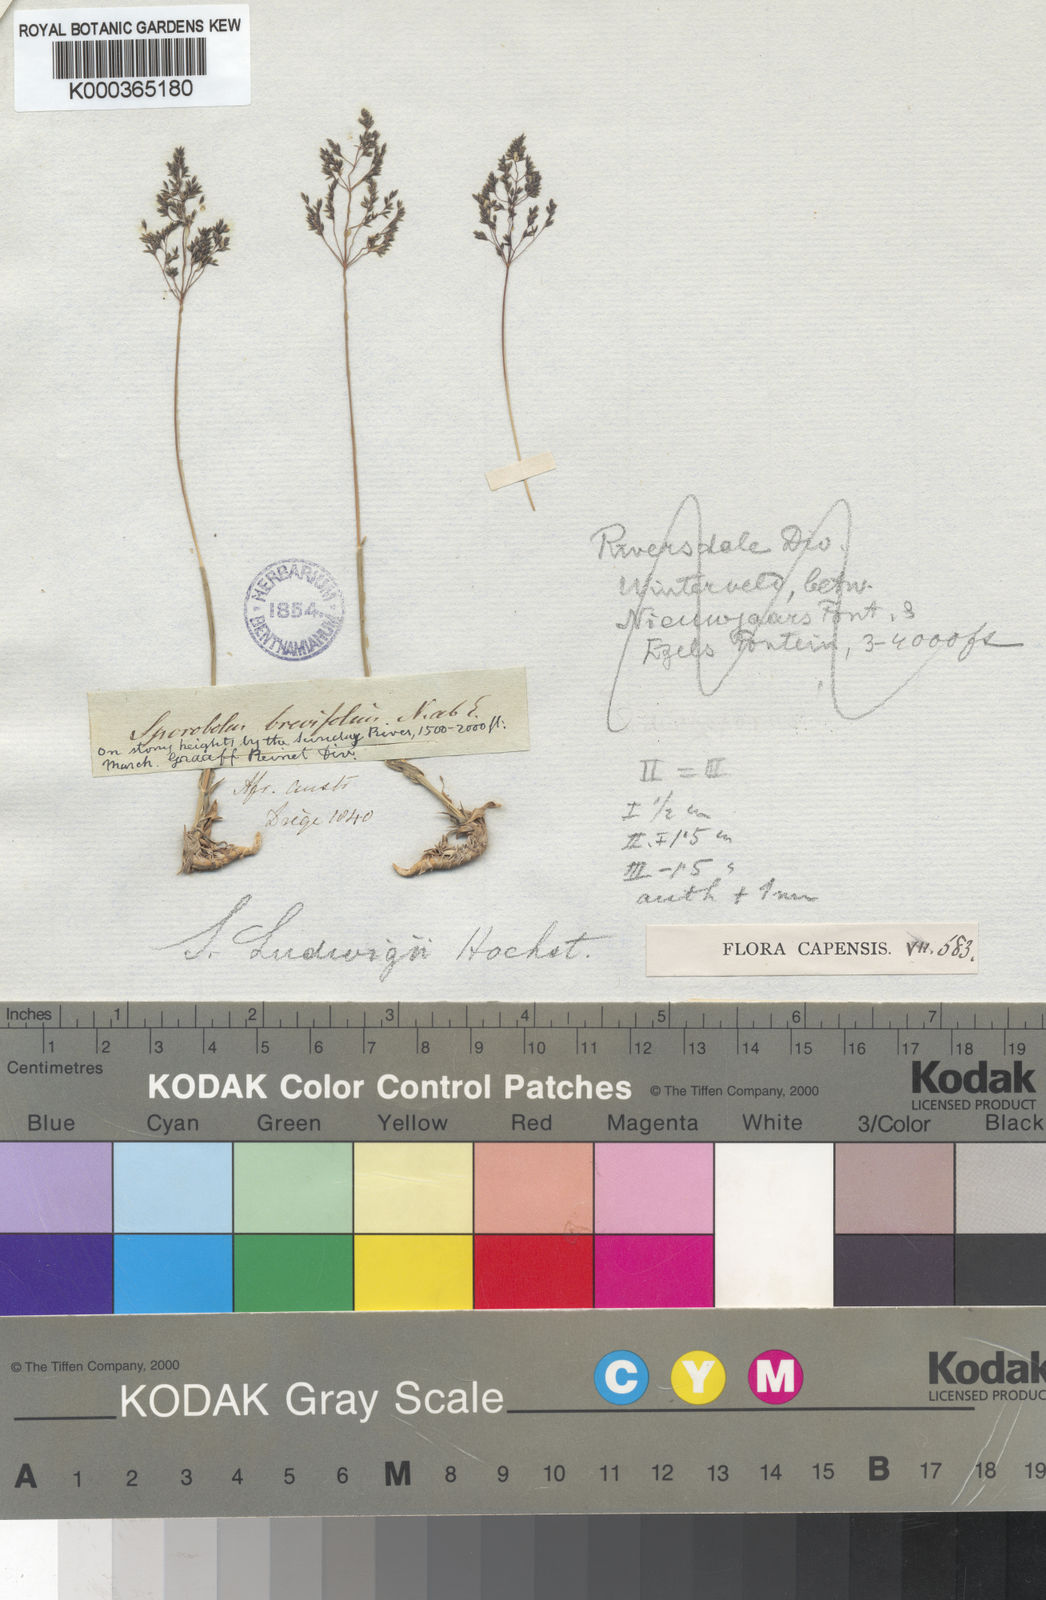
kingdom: Plantae
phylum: Tracheophyta
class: Liliopsida
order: Poales
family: Poaceae
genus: Sporobolus
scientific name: Sporobolus ludwigii
